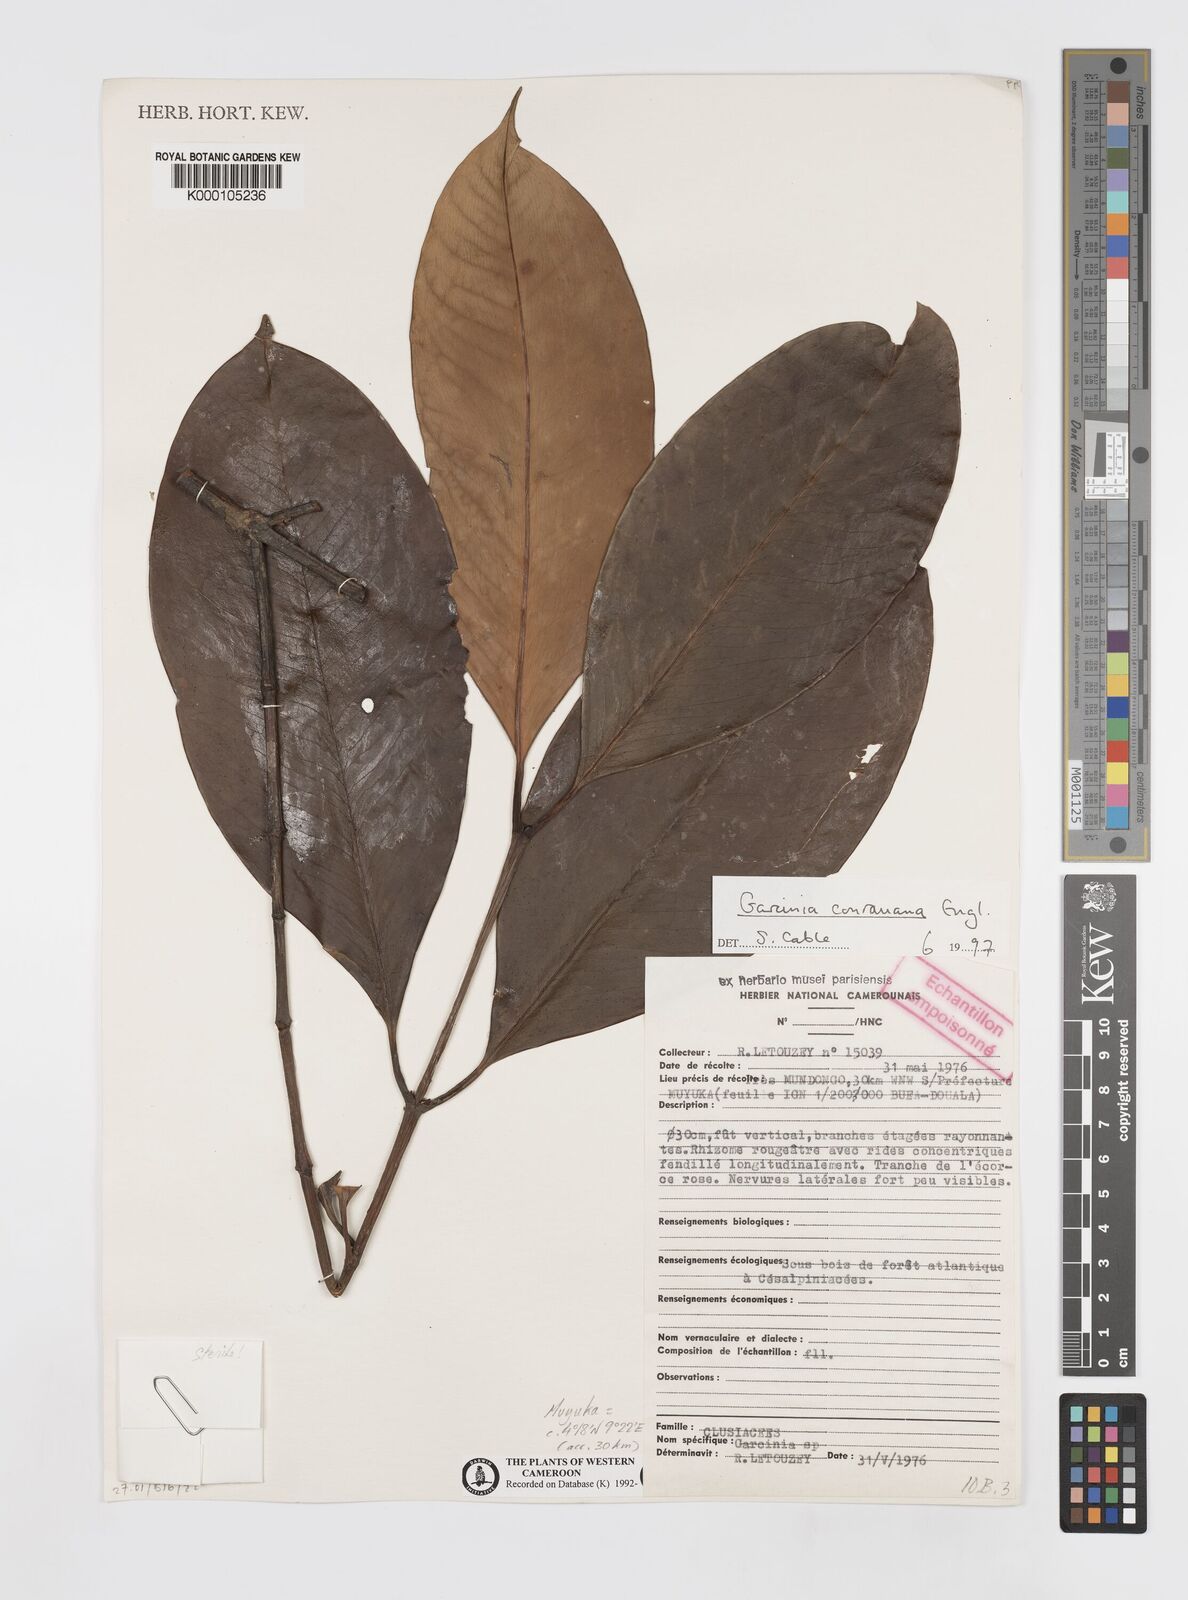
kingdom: Plantae
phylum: Tracheophyta
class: Magnoliopsida
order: Malpighiales
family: Clusiaceae
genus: Garcinia
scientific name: Garcinia conrauana
